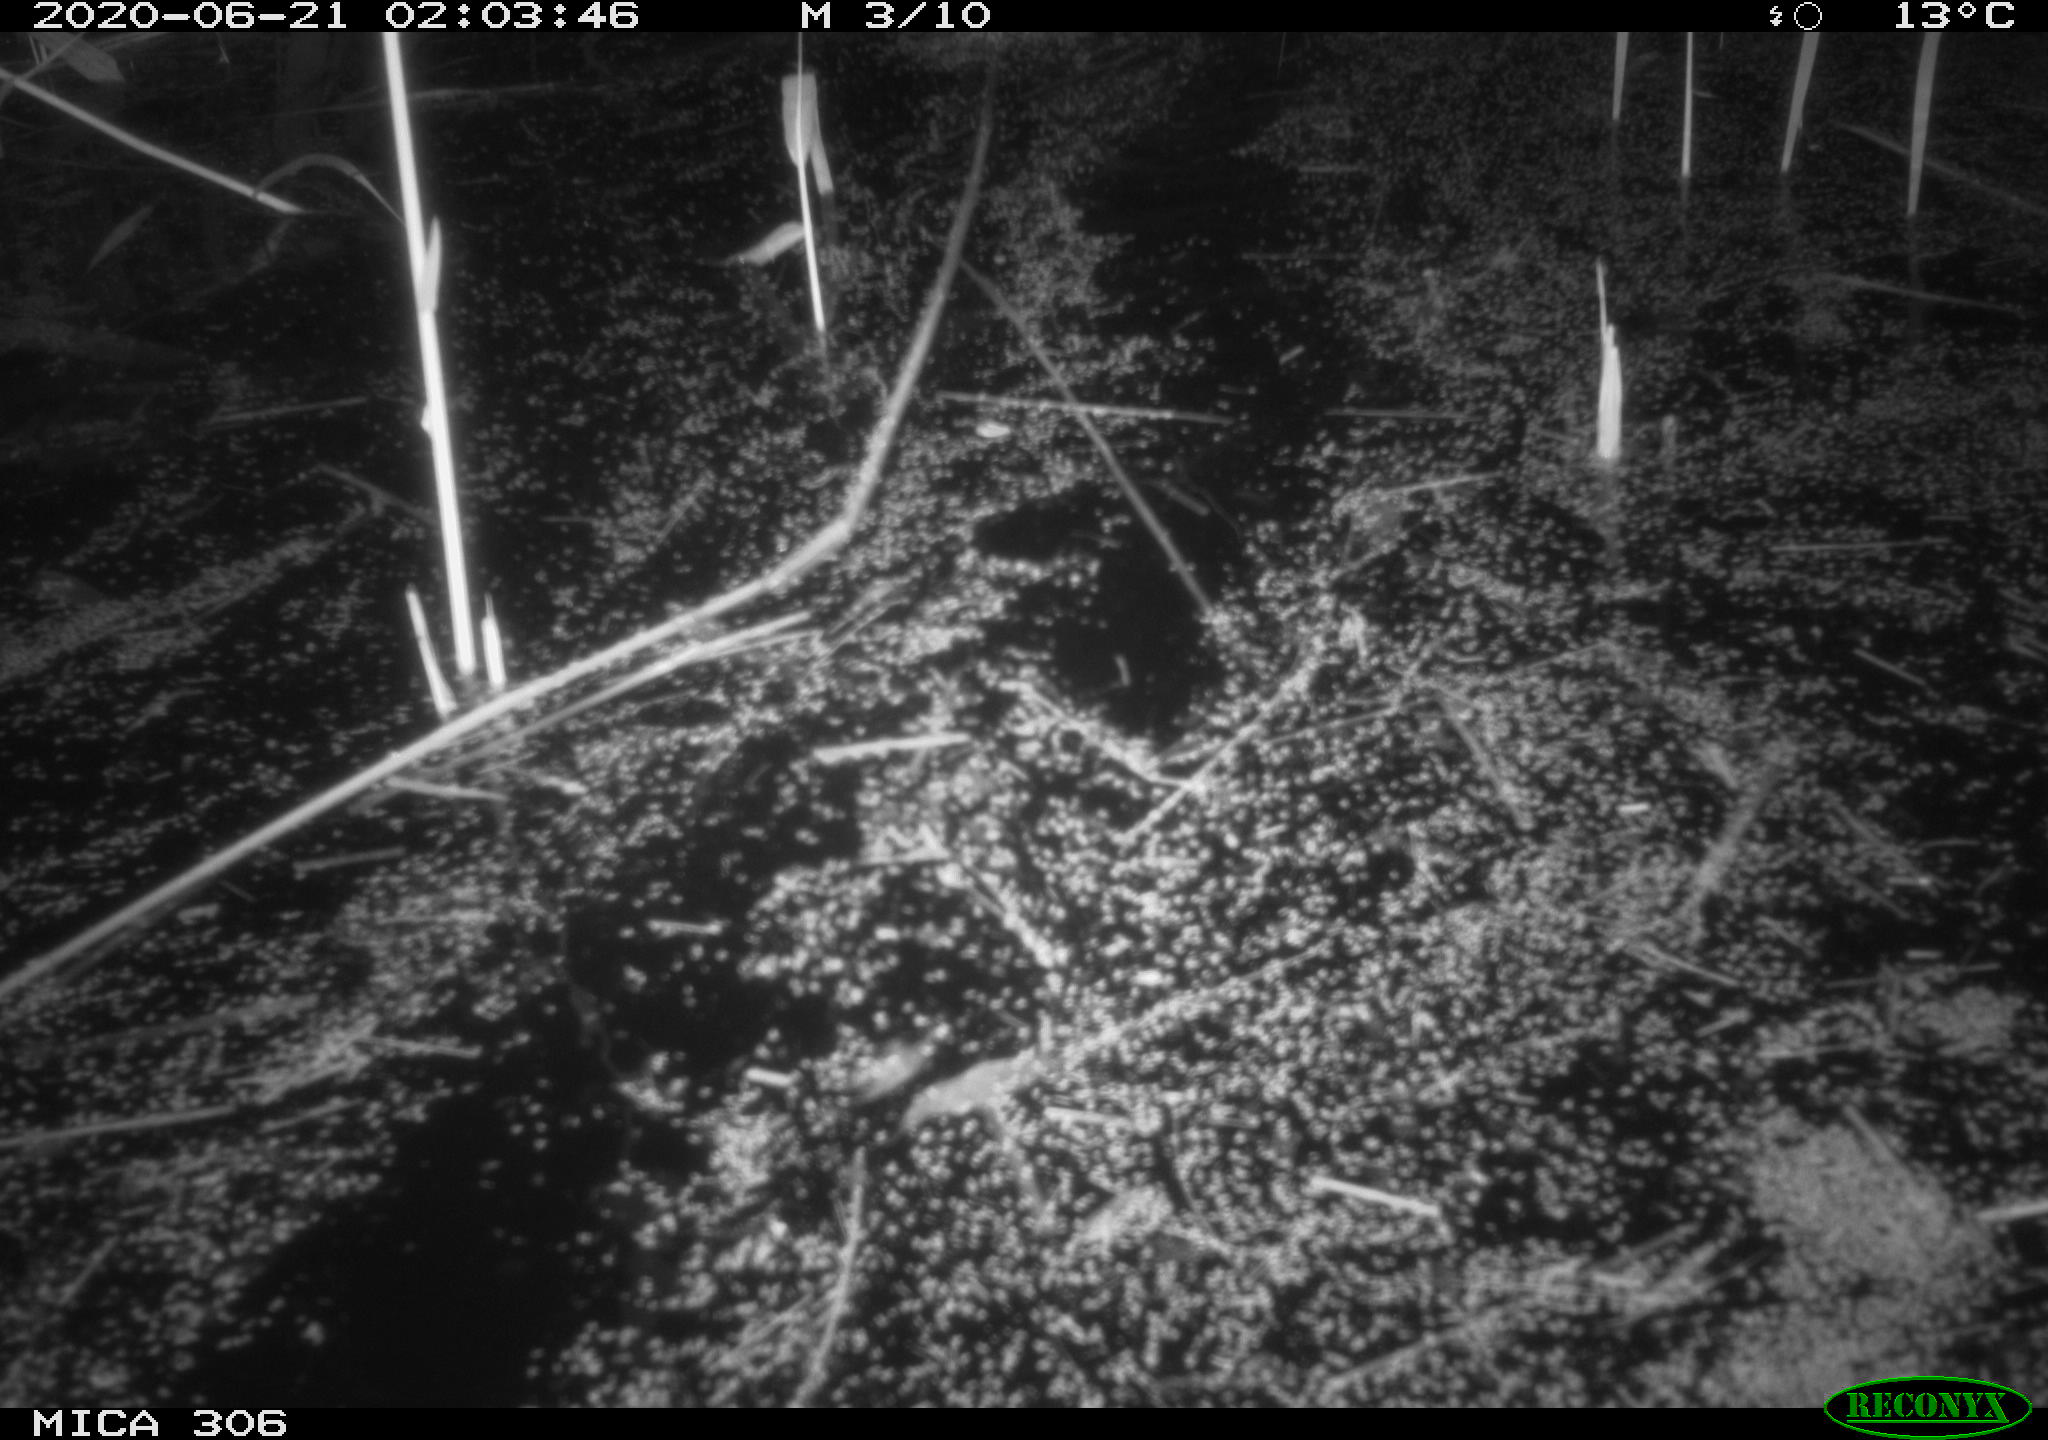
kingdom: Animalia
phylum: Chordata
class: Mammalia
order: Rodentia
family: Muridae
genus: Rattus
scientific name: Rattus norvegicus
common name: Brown rat
